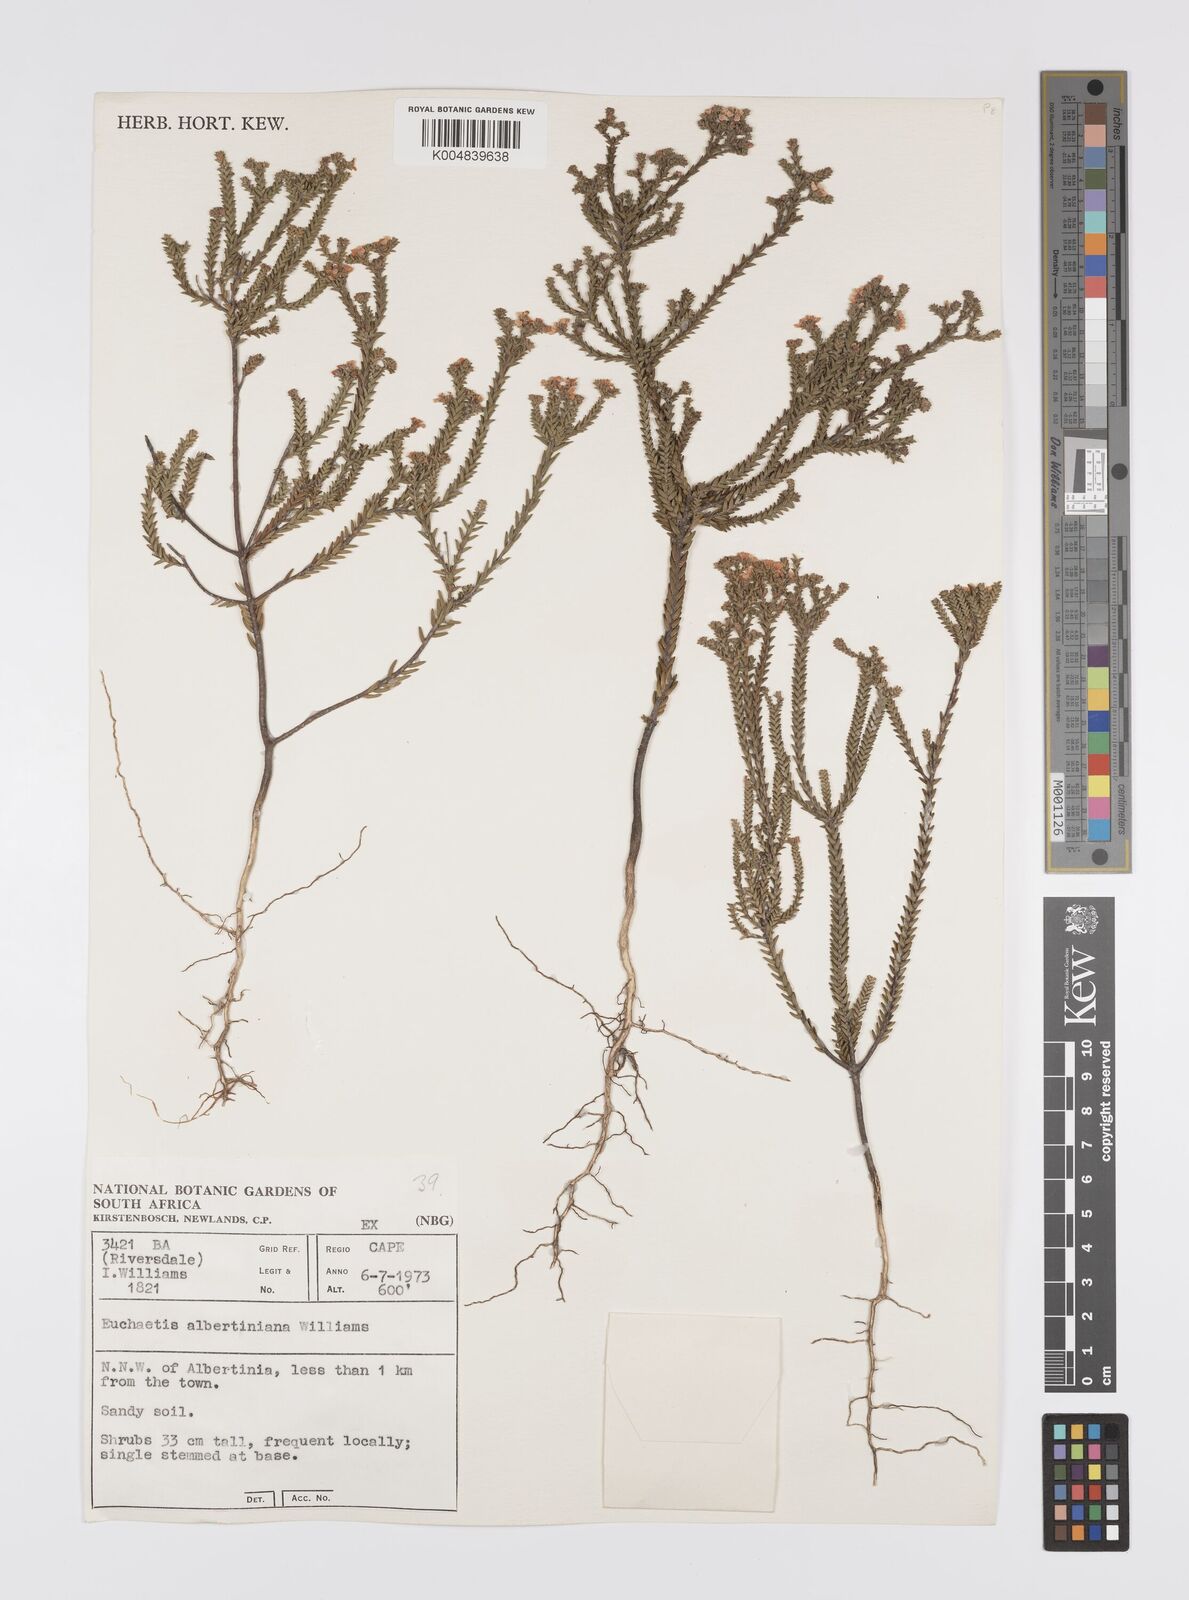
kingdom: Plantae
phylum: Tracheophyta
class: Magnoliopsida
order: Sapindales
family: Rutaceae
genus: Euchaetis
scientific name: Euchaetis albertiniana
